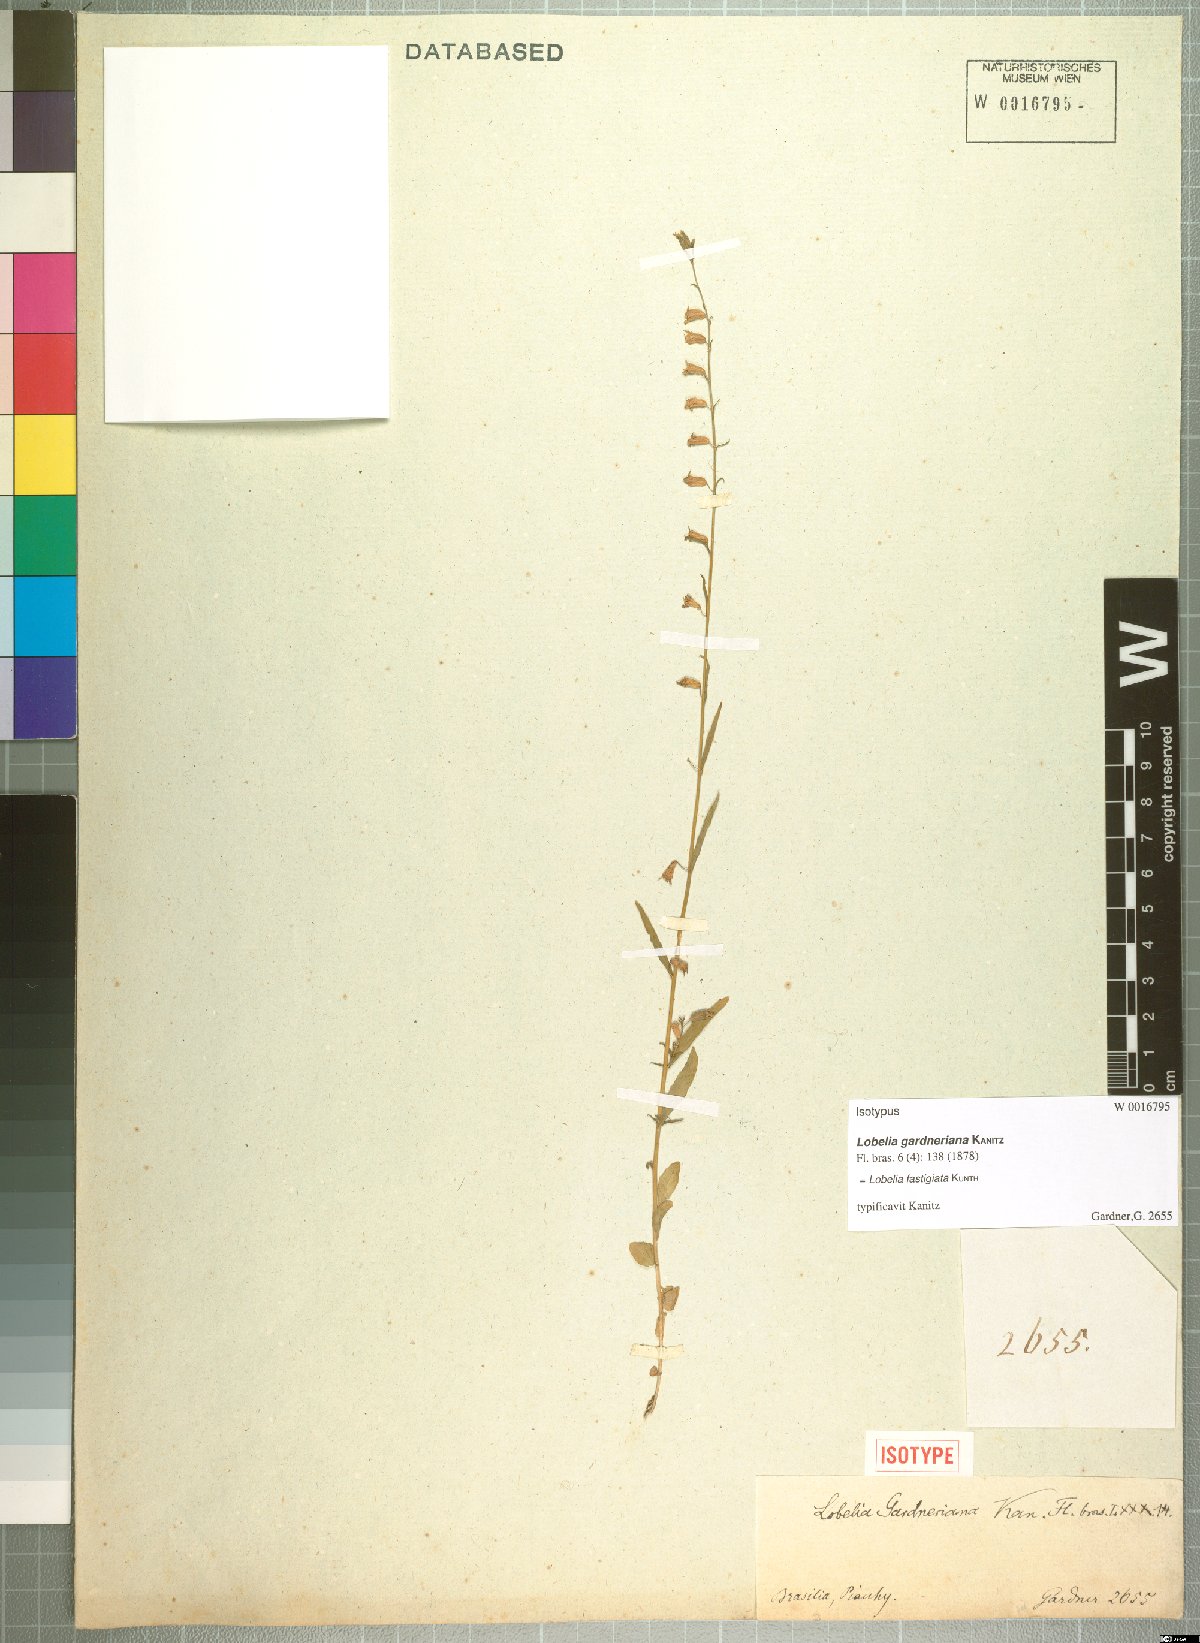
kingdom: Plantae
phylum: Tracheophyta
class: Magnoliopsida
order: Asterales
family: Campanulaceae
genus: Lobelia
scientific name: Lobelia fastigiata
